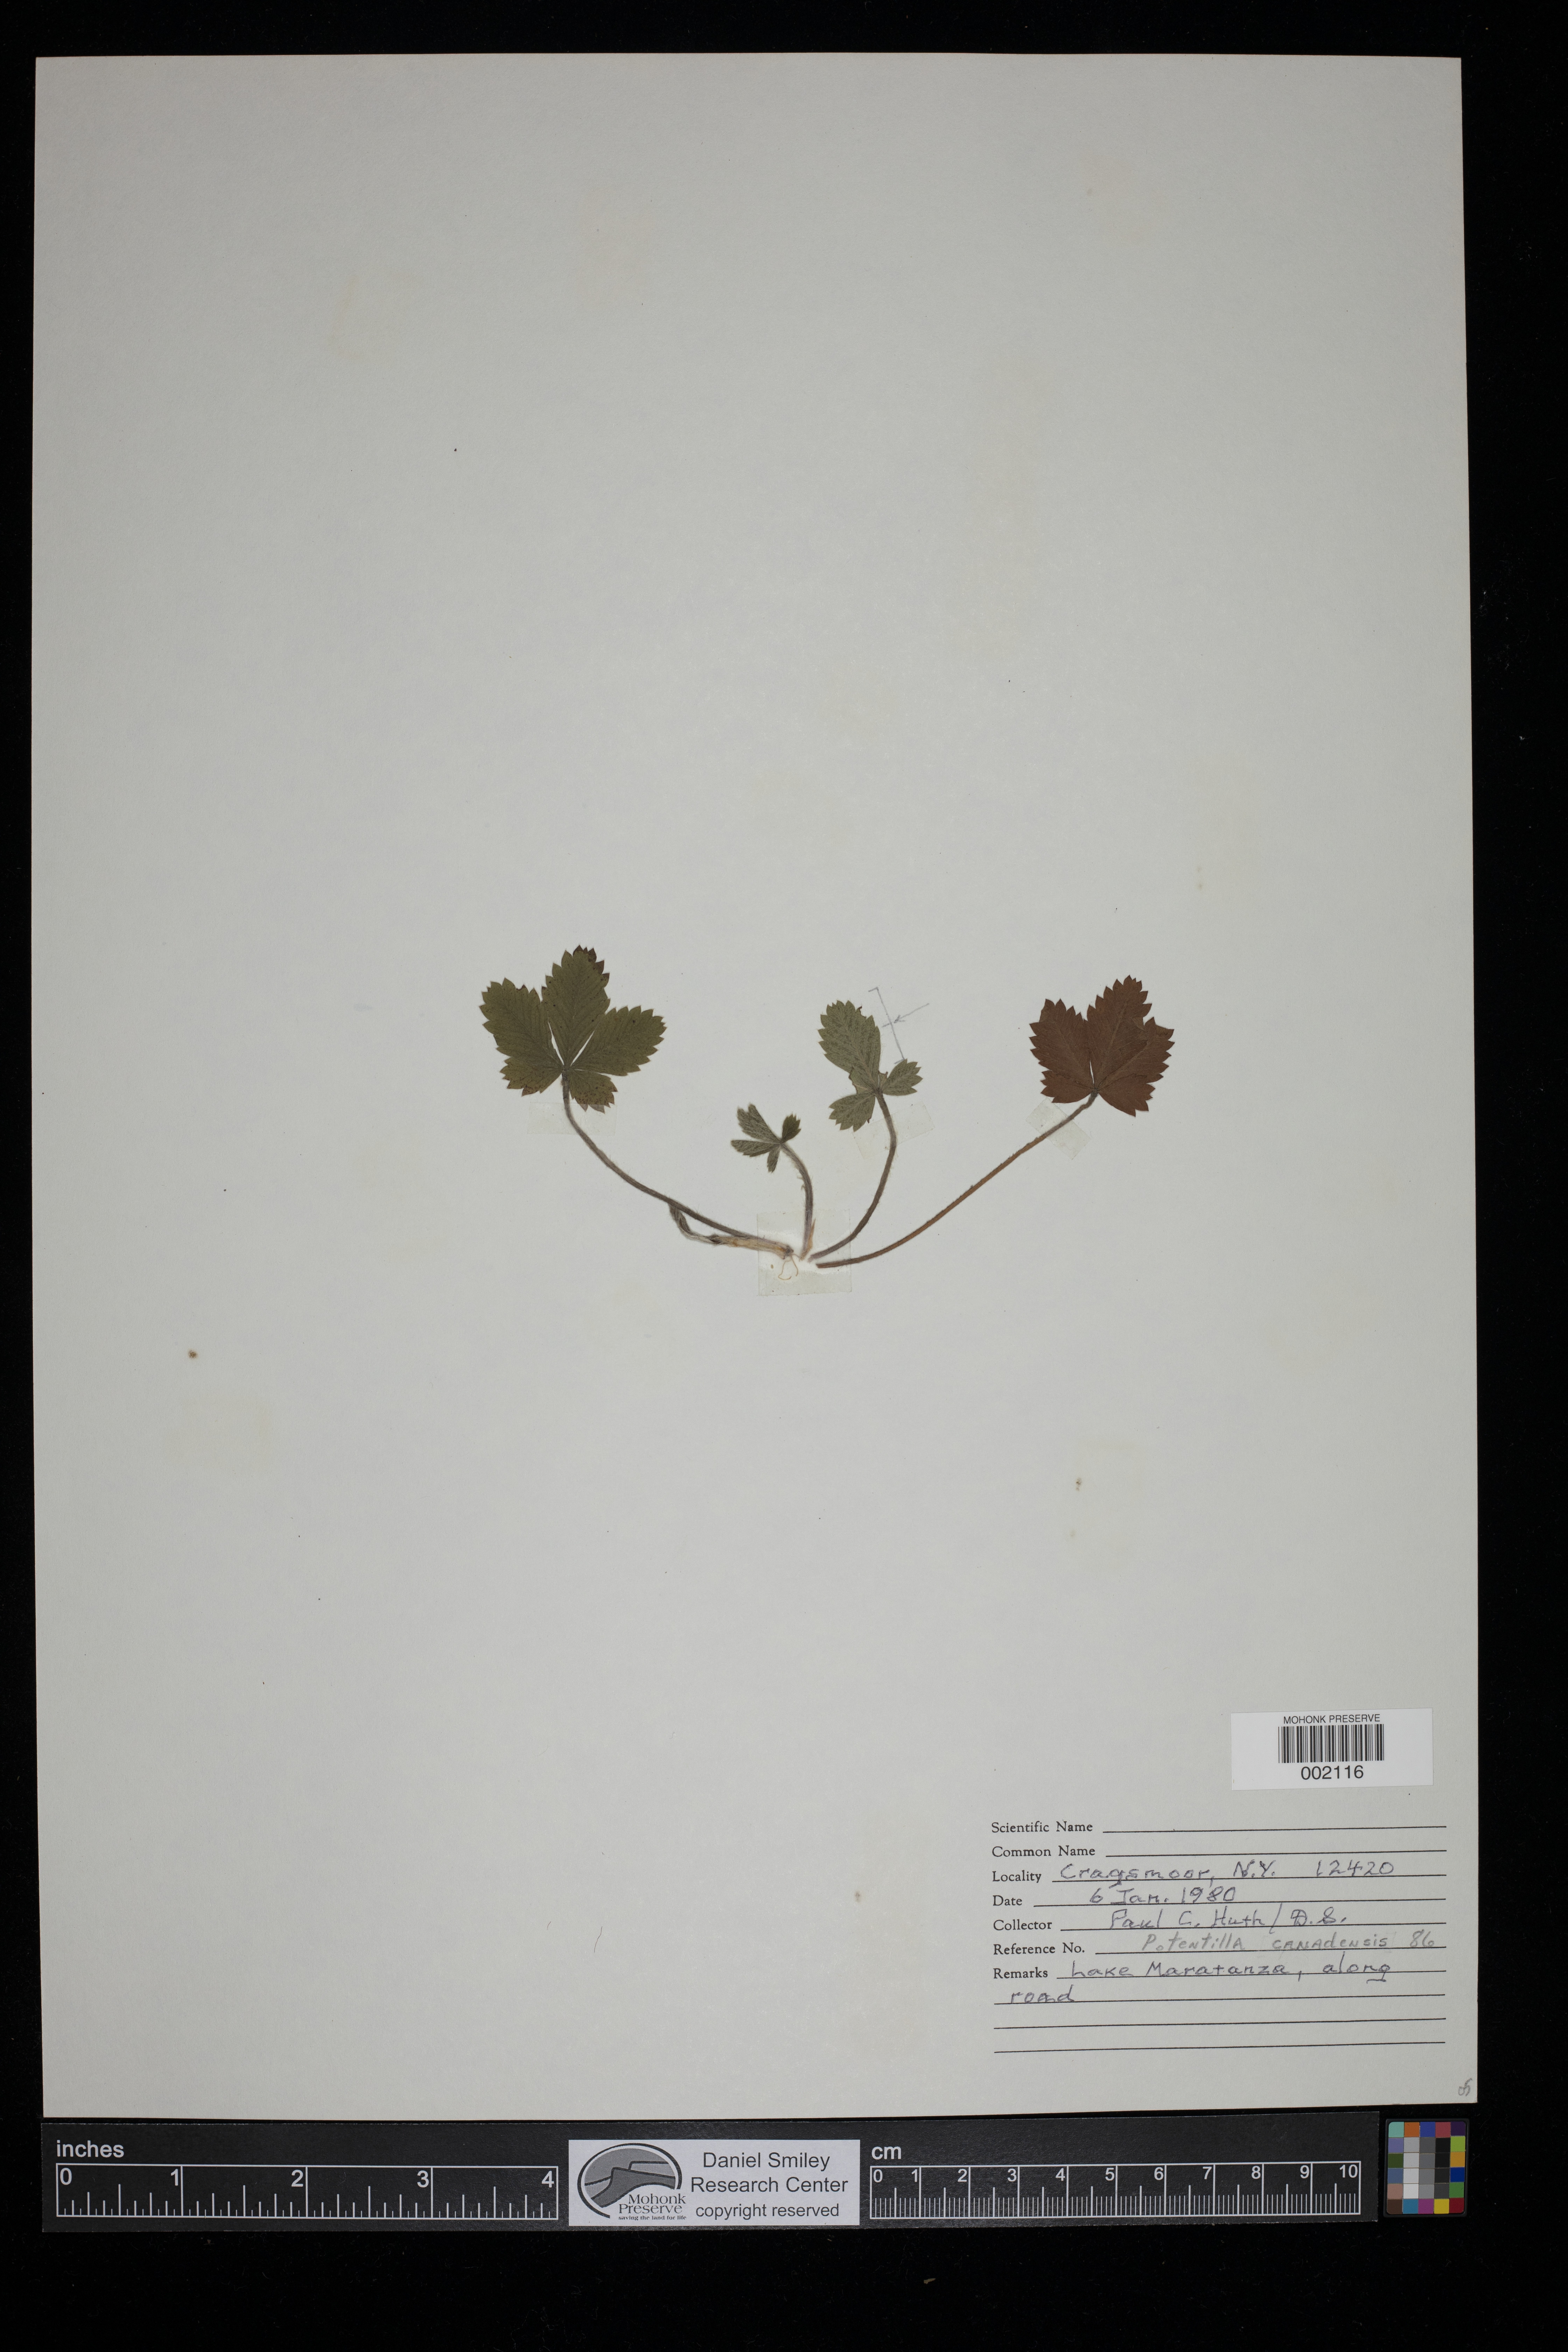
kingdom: Plantae
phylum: Tracheophyta
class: Magnoliopsida
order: Rosales
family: Rosaceae
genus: Potentilla
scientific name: Potentilla canadensis
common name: Canada cinquefoil
